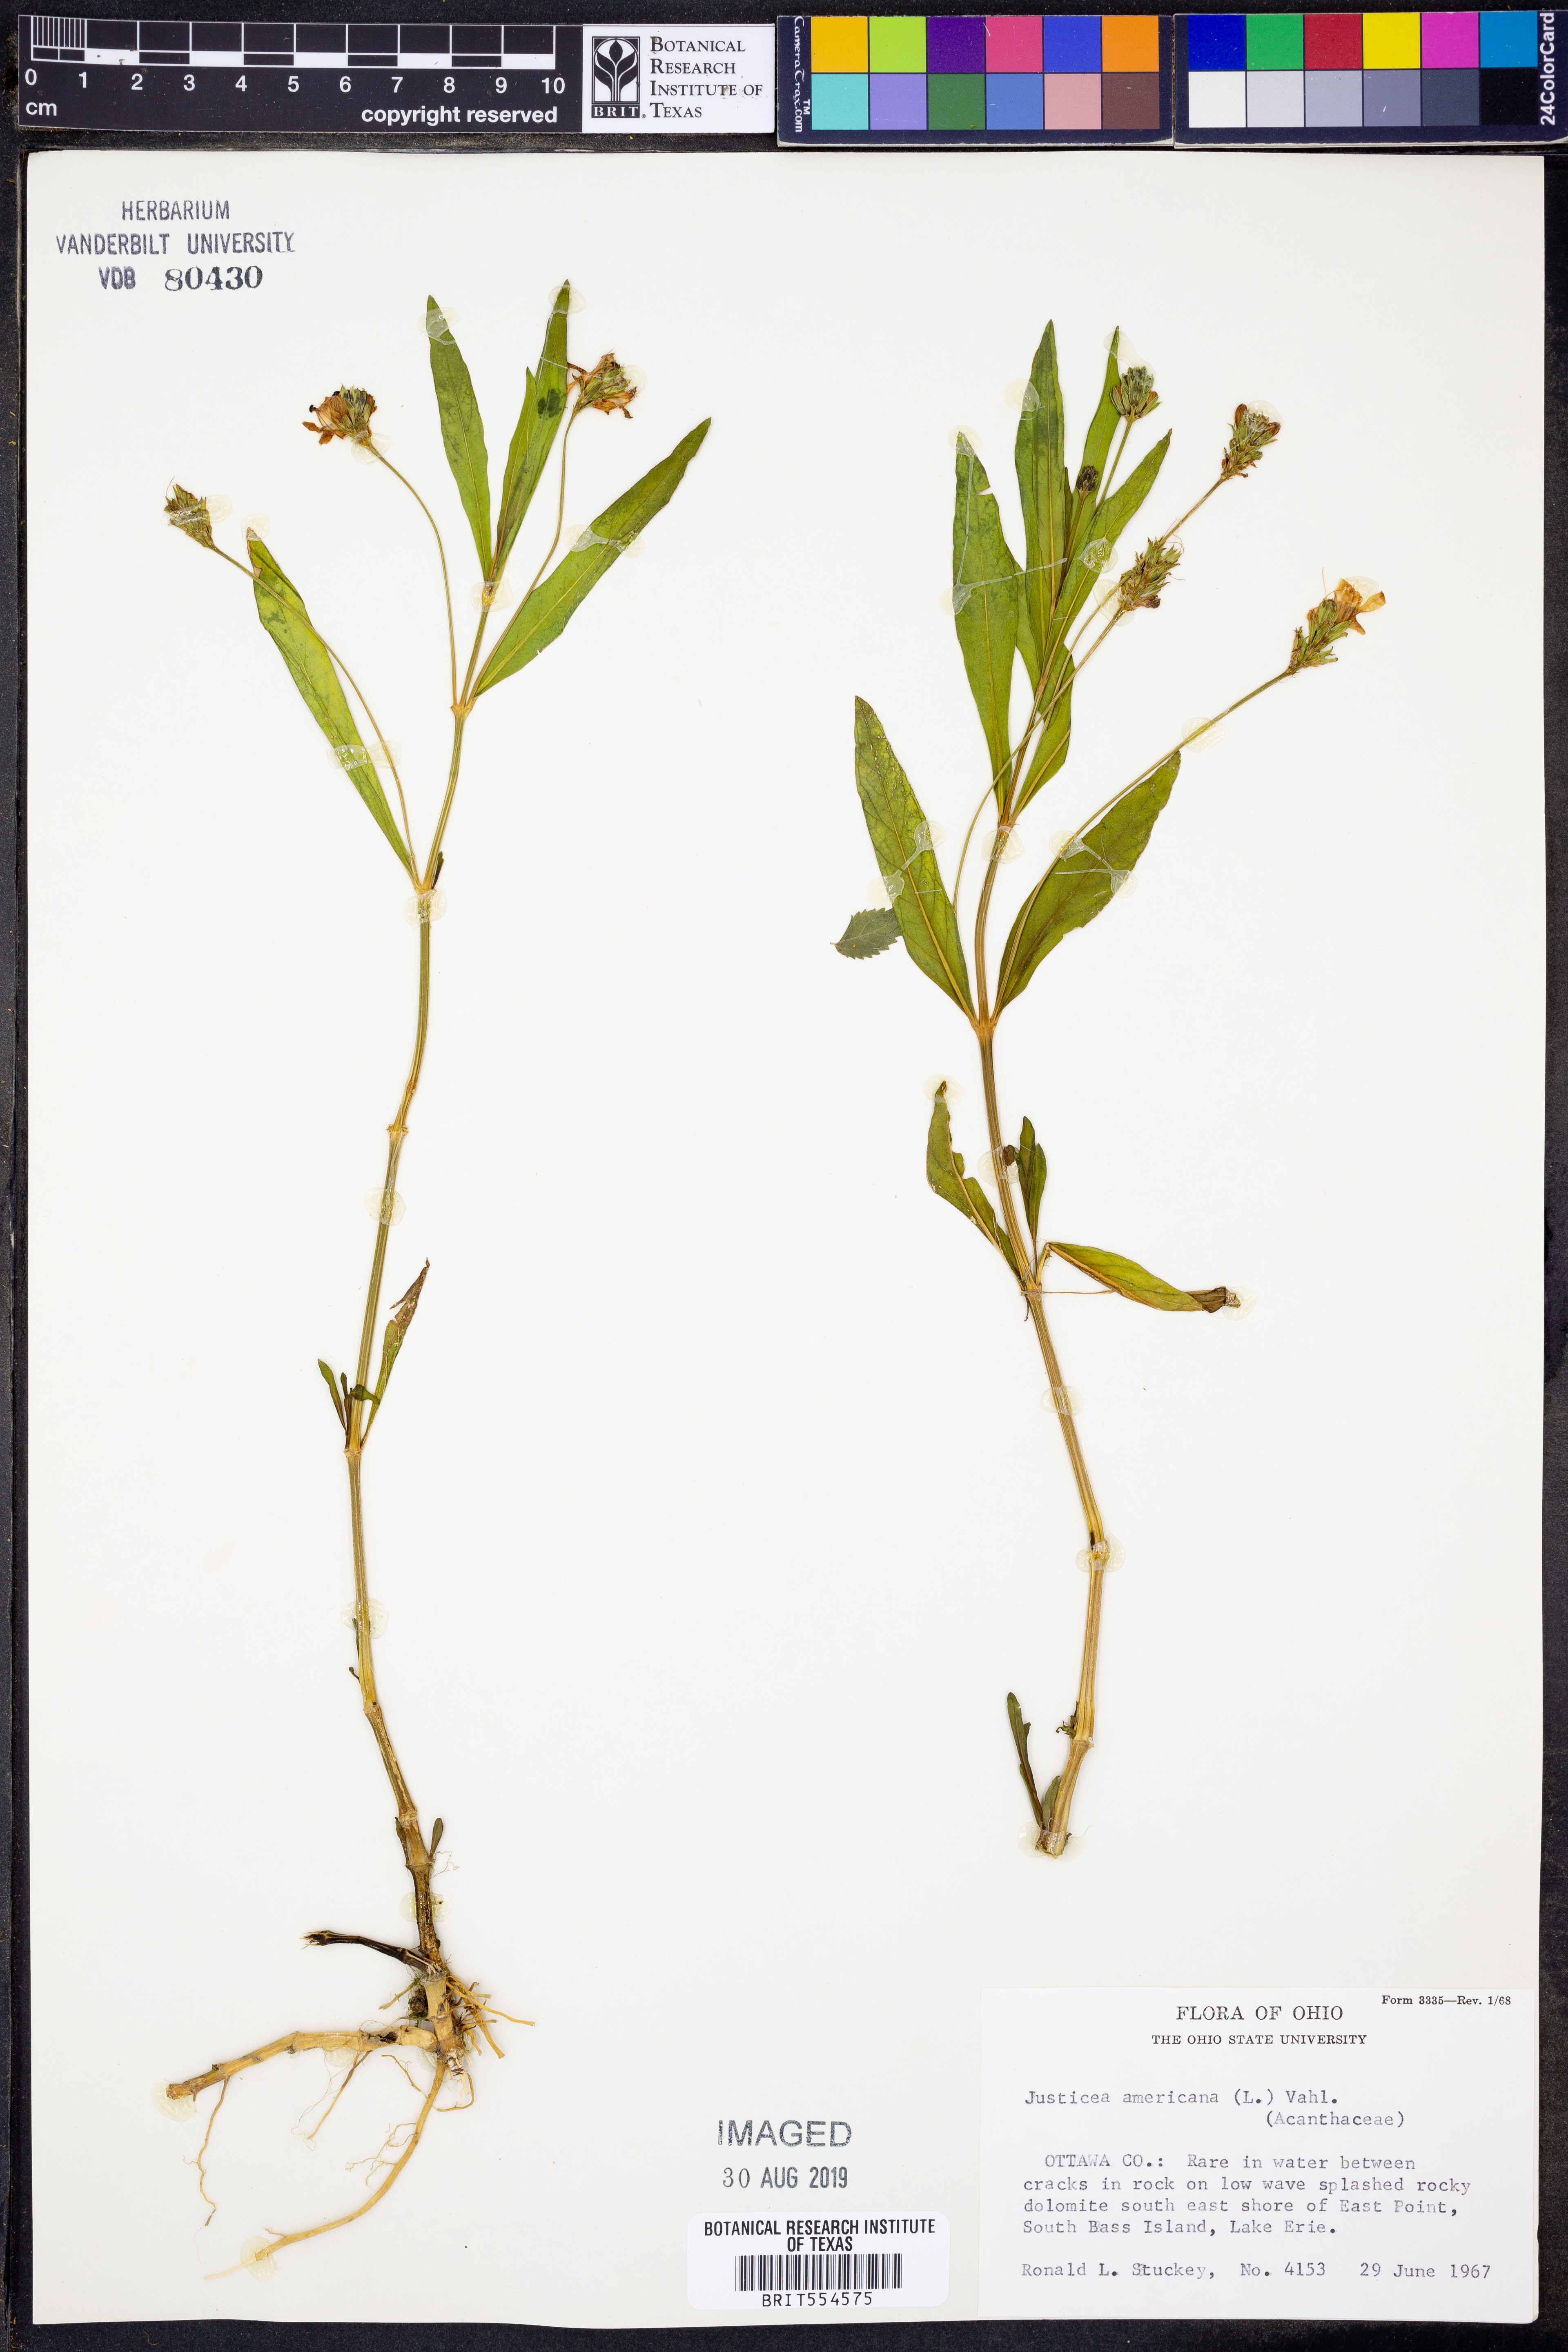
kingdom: Plantae
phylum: Tracheophyta
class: Magnoliopsida
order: Lamiales
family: Acanthaceae
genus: Dianthera
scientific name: Dianthera americana
